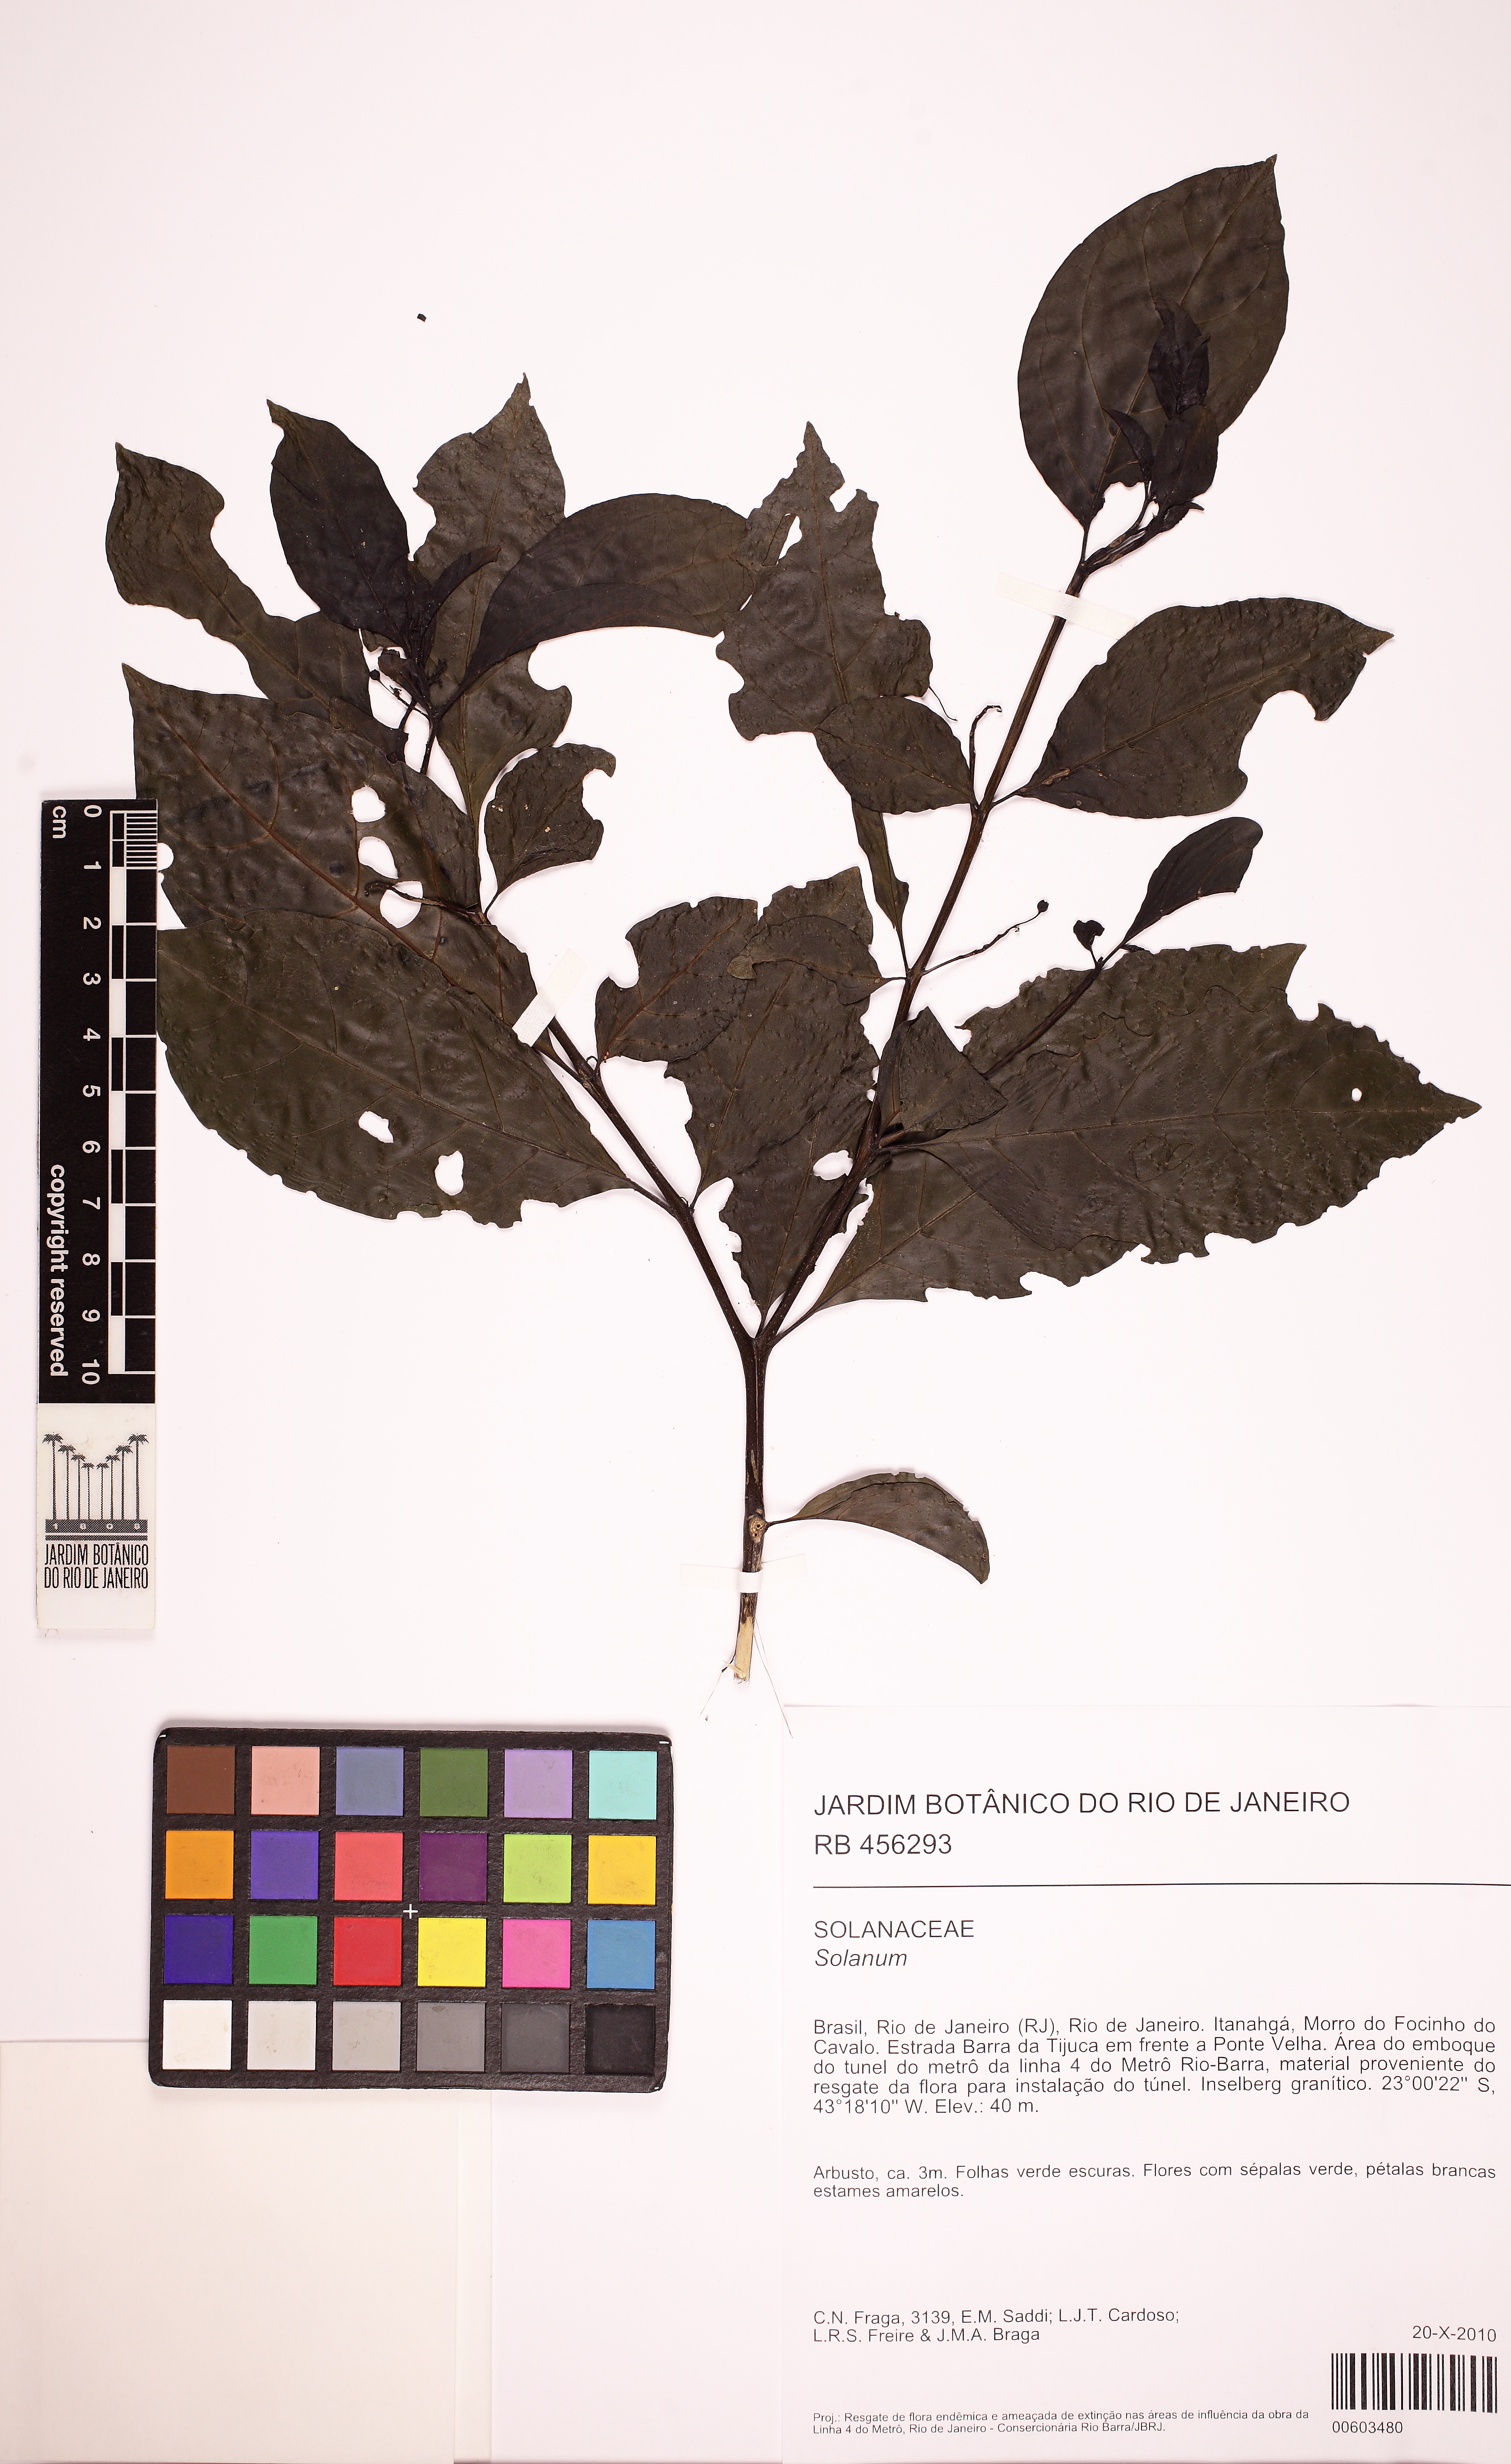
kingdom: Plantae
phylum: Tracheophyta
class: Magnoliopsida
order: Solanales
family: Solanaceae
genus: Solanum
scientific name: Solanum campaniforme
